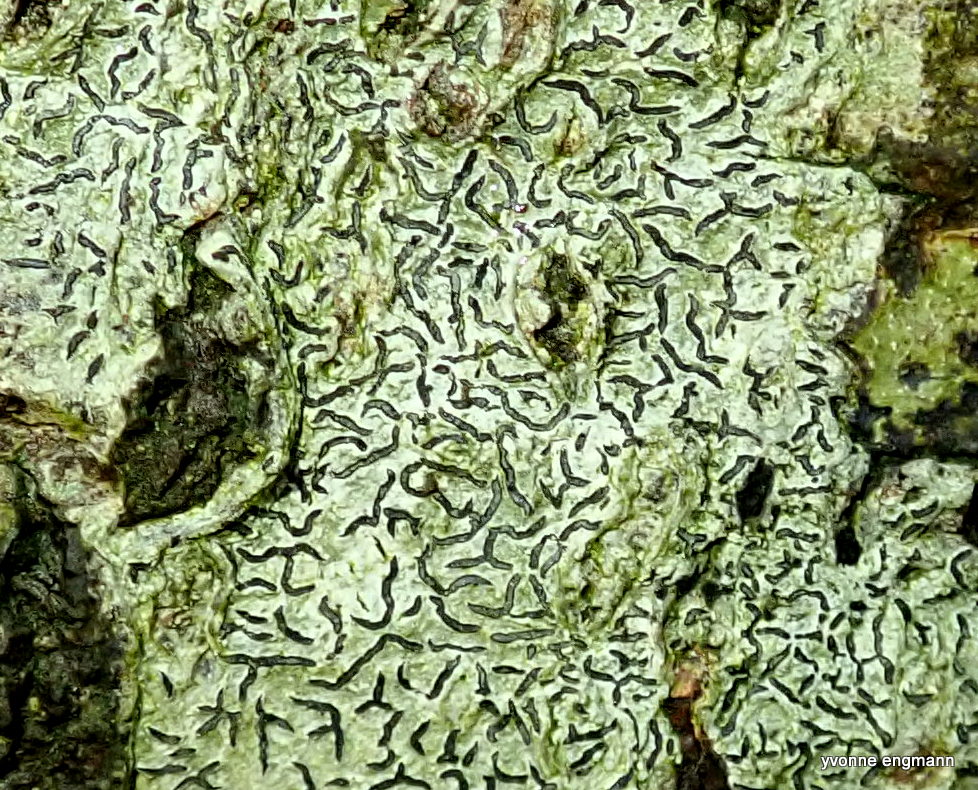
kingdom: Fungi
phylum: Ascomycota
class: Lecanoromycetes
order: Ostropales
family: Graphidaceae
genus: Graphis
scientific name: Graphis scripta
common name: almindelig skriftlav
